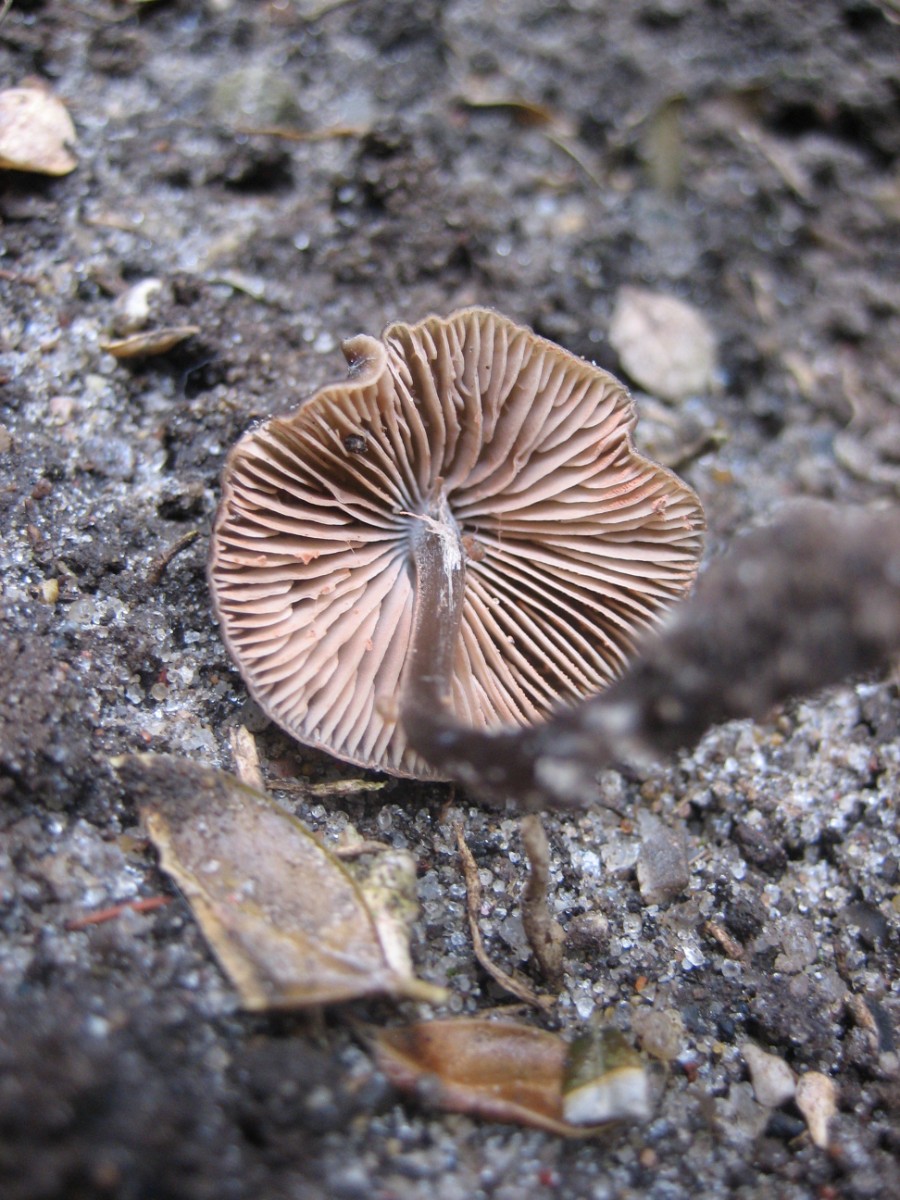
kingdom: Fungi
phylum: Basidiomycota
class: Agaricomycetes
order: Agaricales
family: Entolomataceae
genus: Entoloma
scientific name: Entoloma
